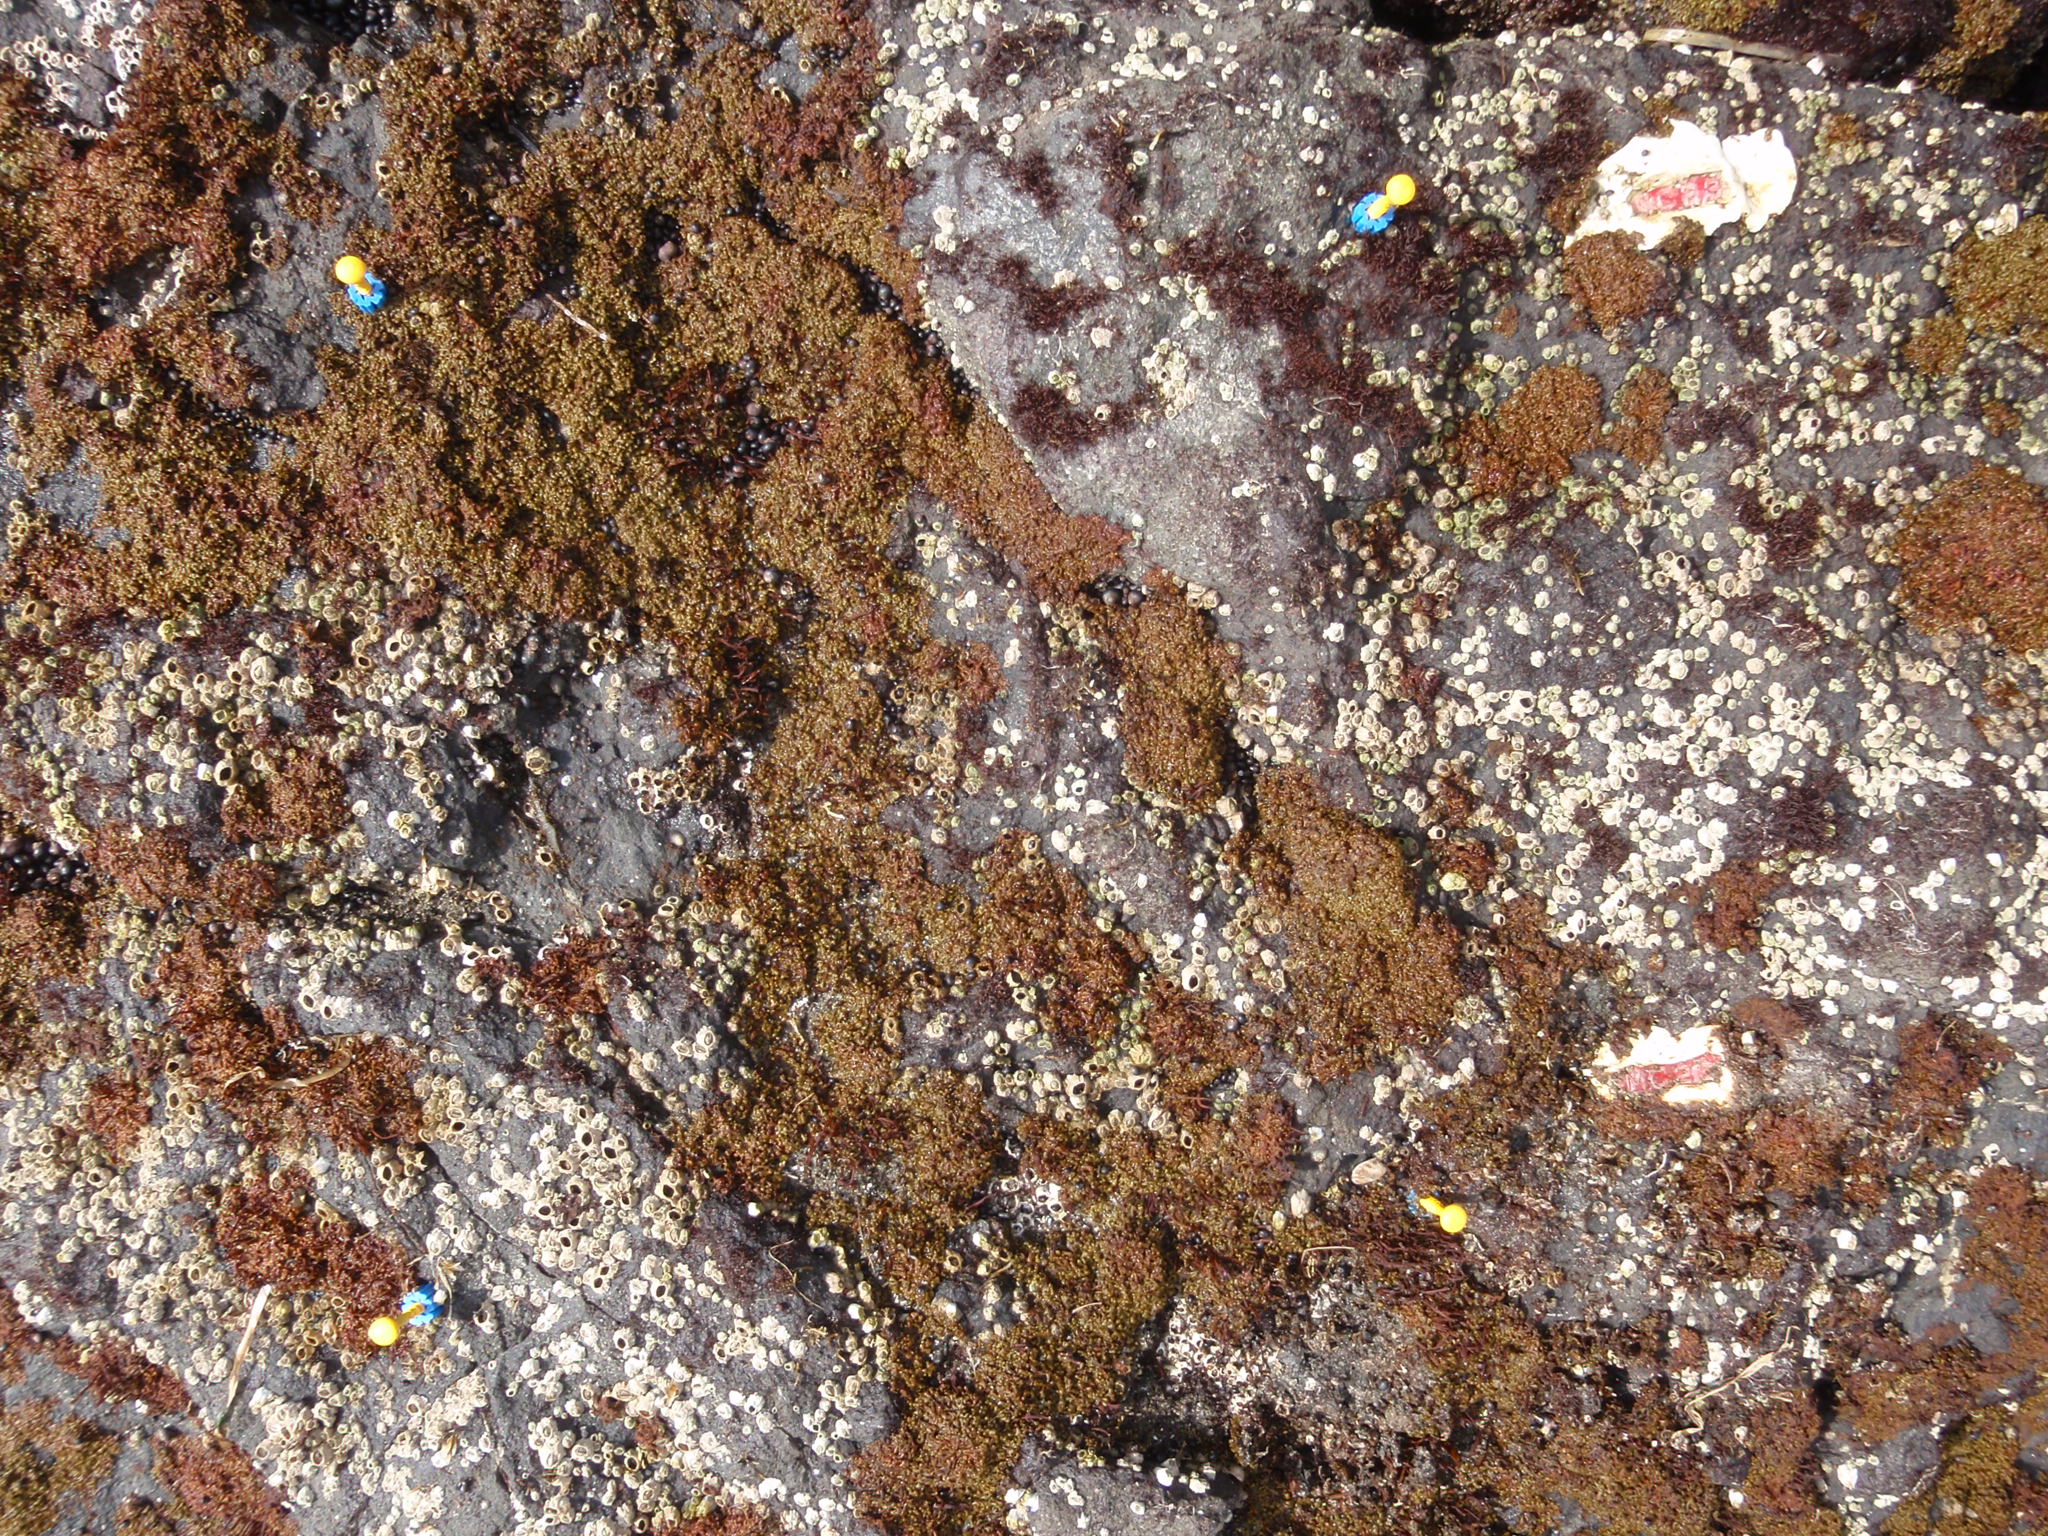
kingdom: Plantae
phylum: Rhodophyta
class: Florideophyceae
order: Gigartinales
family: Endocladiaceae
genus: Gloiopeltis
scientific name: Gloiopeltis furcata
